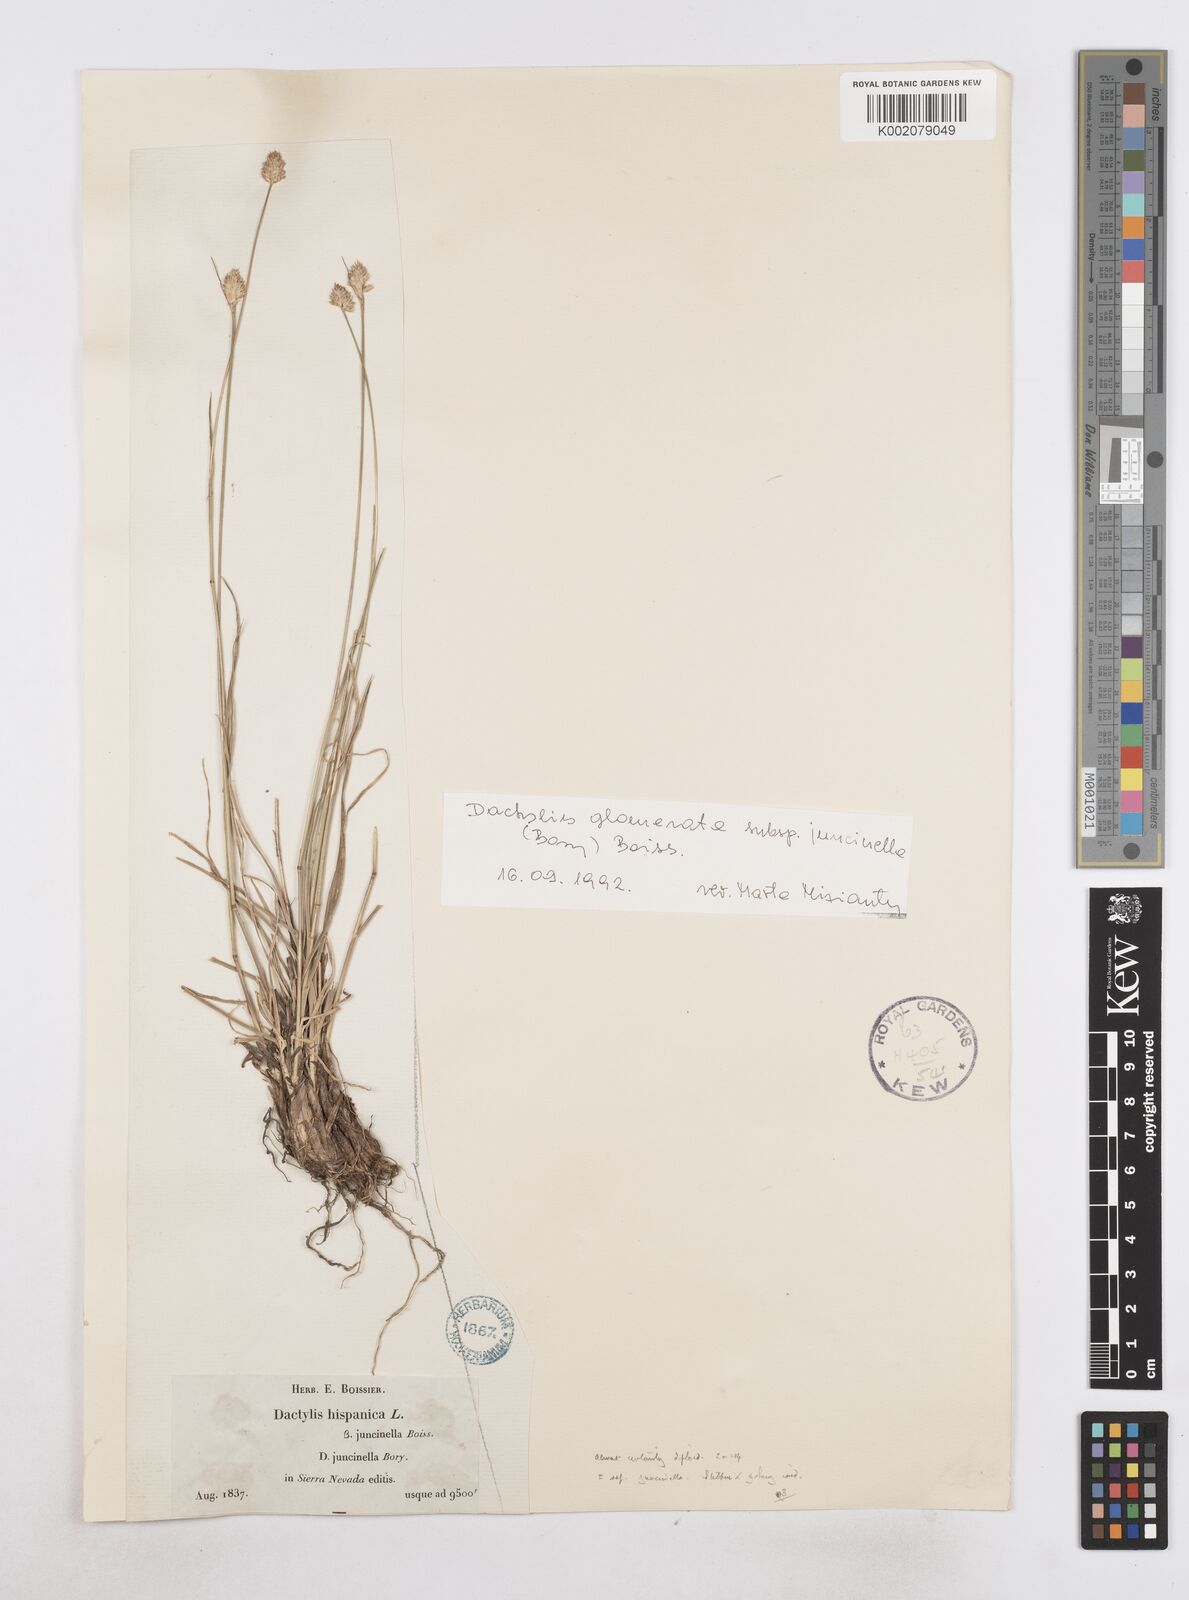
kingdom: Plantae
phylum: Tracheophyta
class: Liliopsida
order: Poales
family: Poaceae
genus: Dactylis
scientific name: Dactylis glomerata
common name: Orchardgrass
